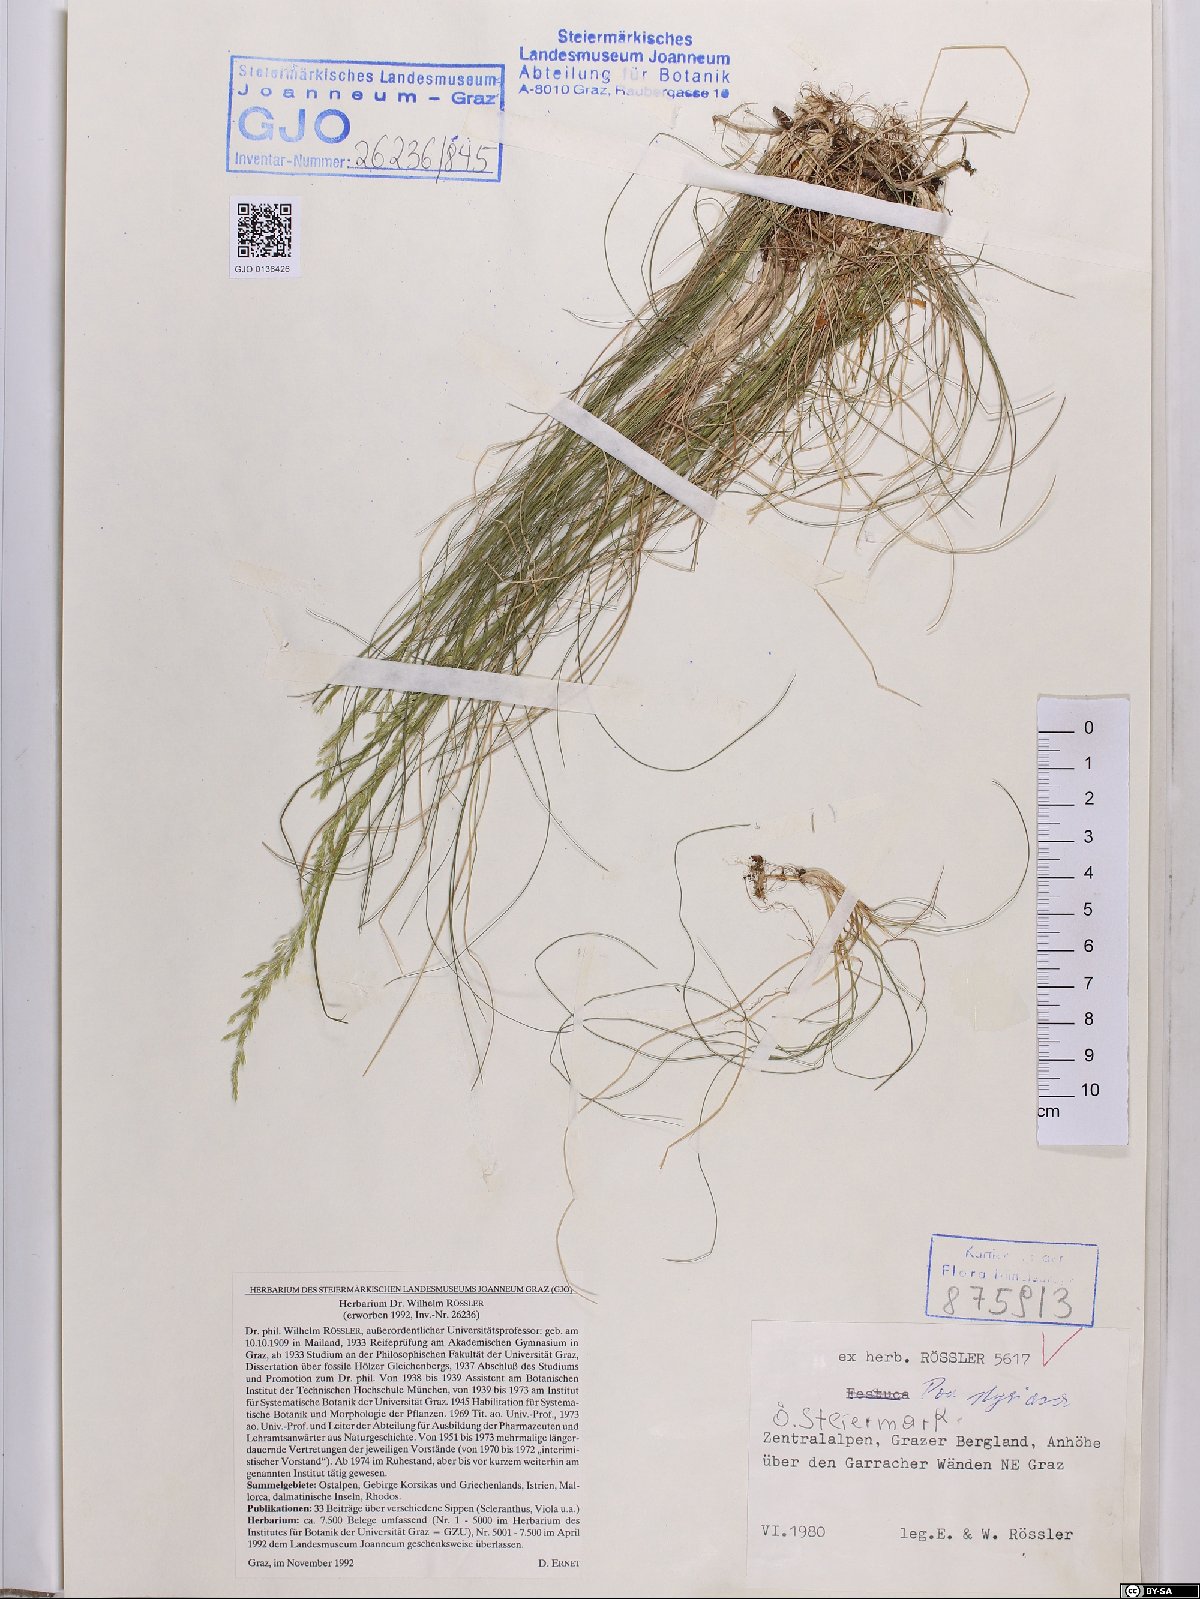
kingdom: Plantae
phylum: Tracheophyta
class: Liliopsida
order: Poales
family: Poaceae
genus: Poa
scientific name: Poa stiriaca
